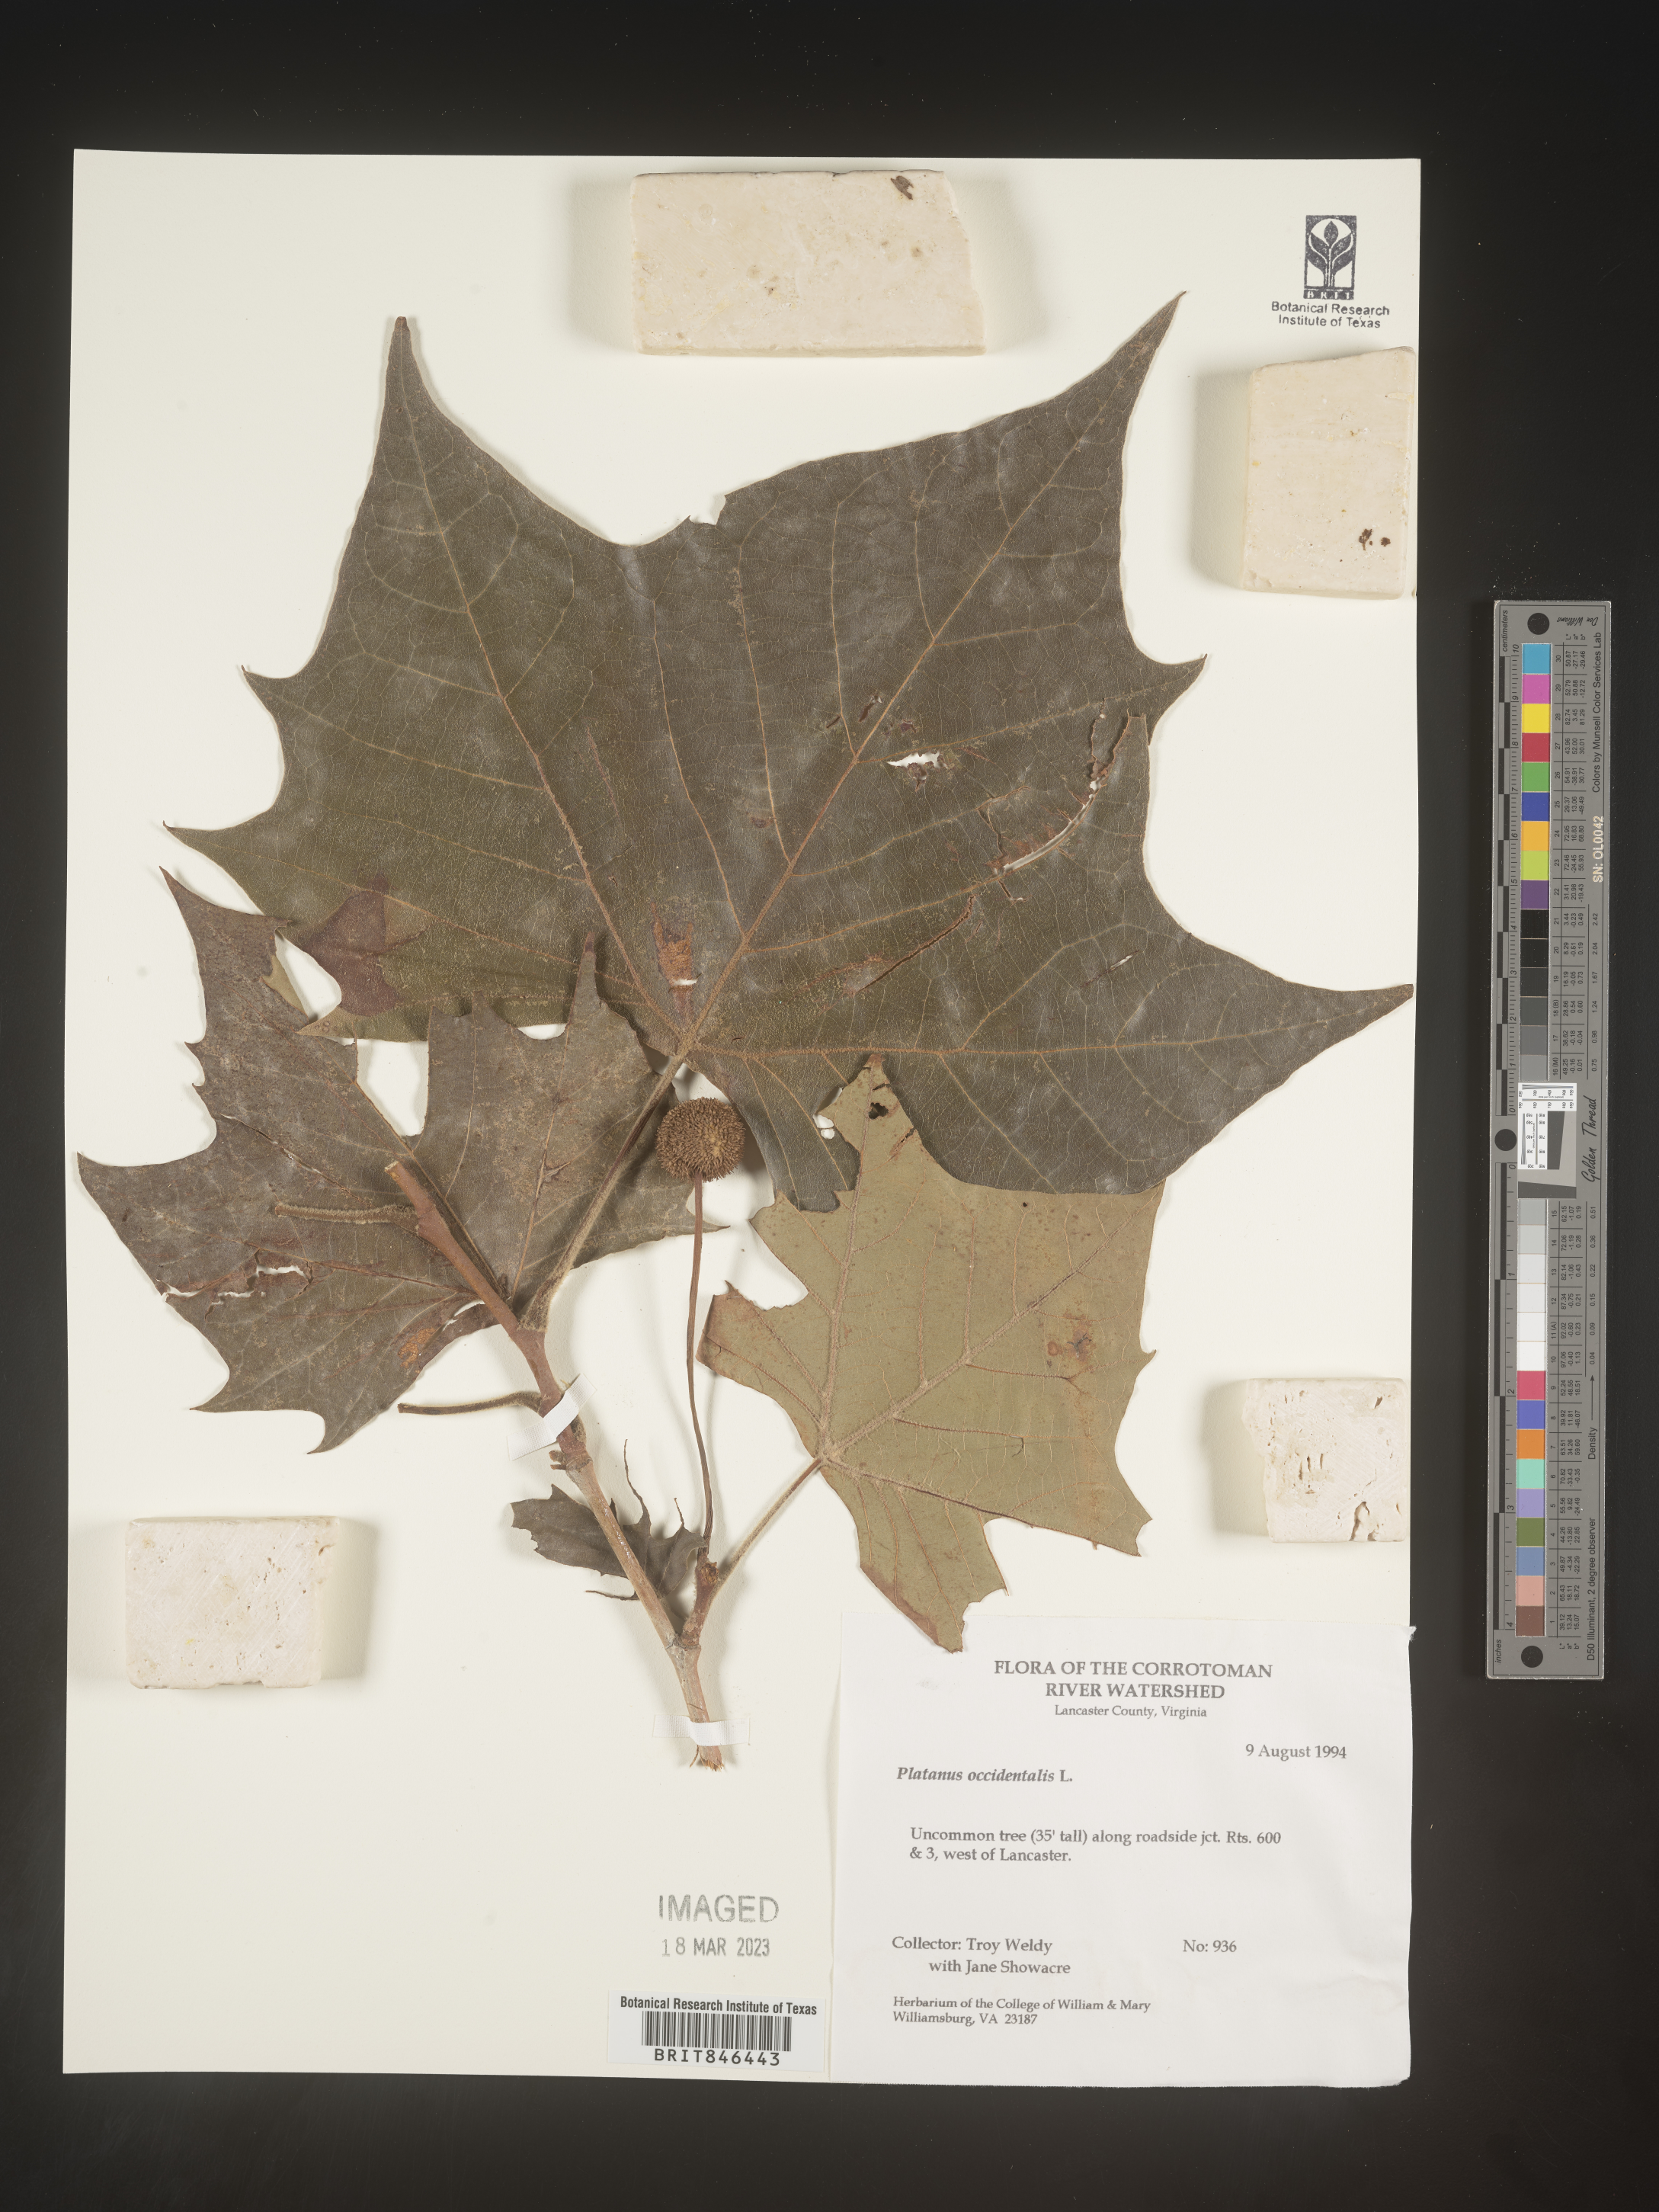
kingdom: Plantae
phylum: Tracheophyta
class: Magnoliopsida
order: Proteales
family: Platanaceae
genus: Platanus
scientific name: Platanus occidentalis
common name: American sycamore
